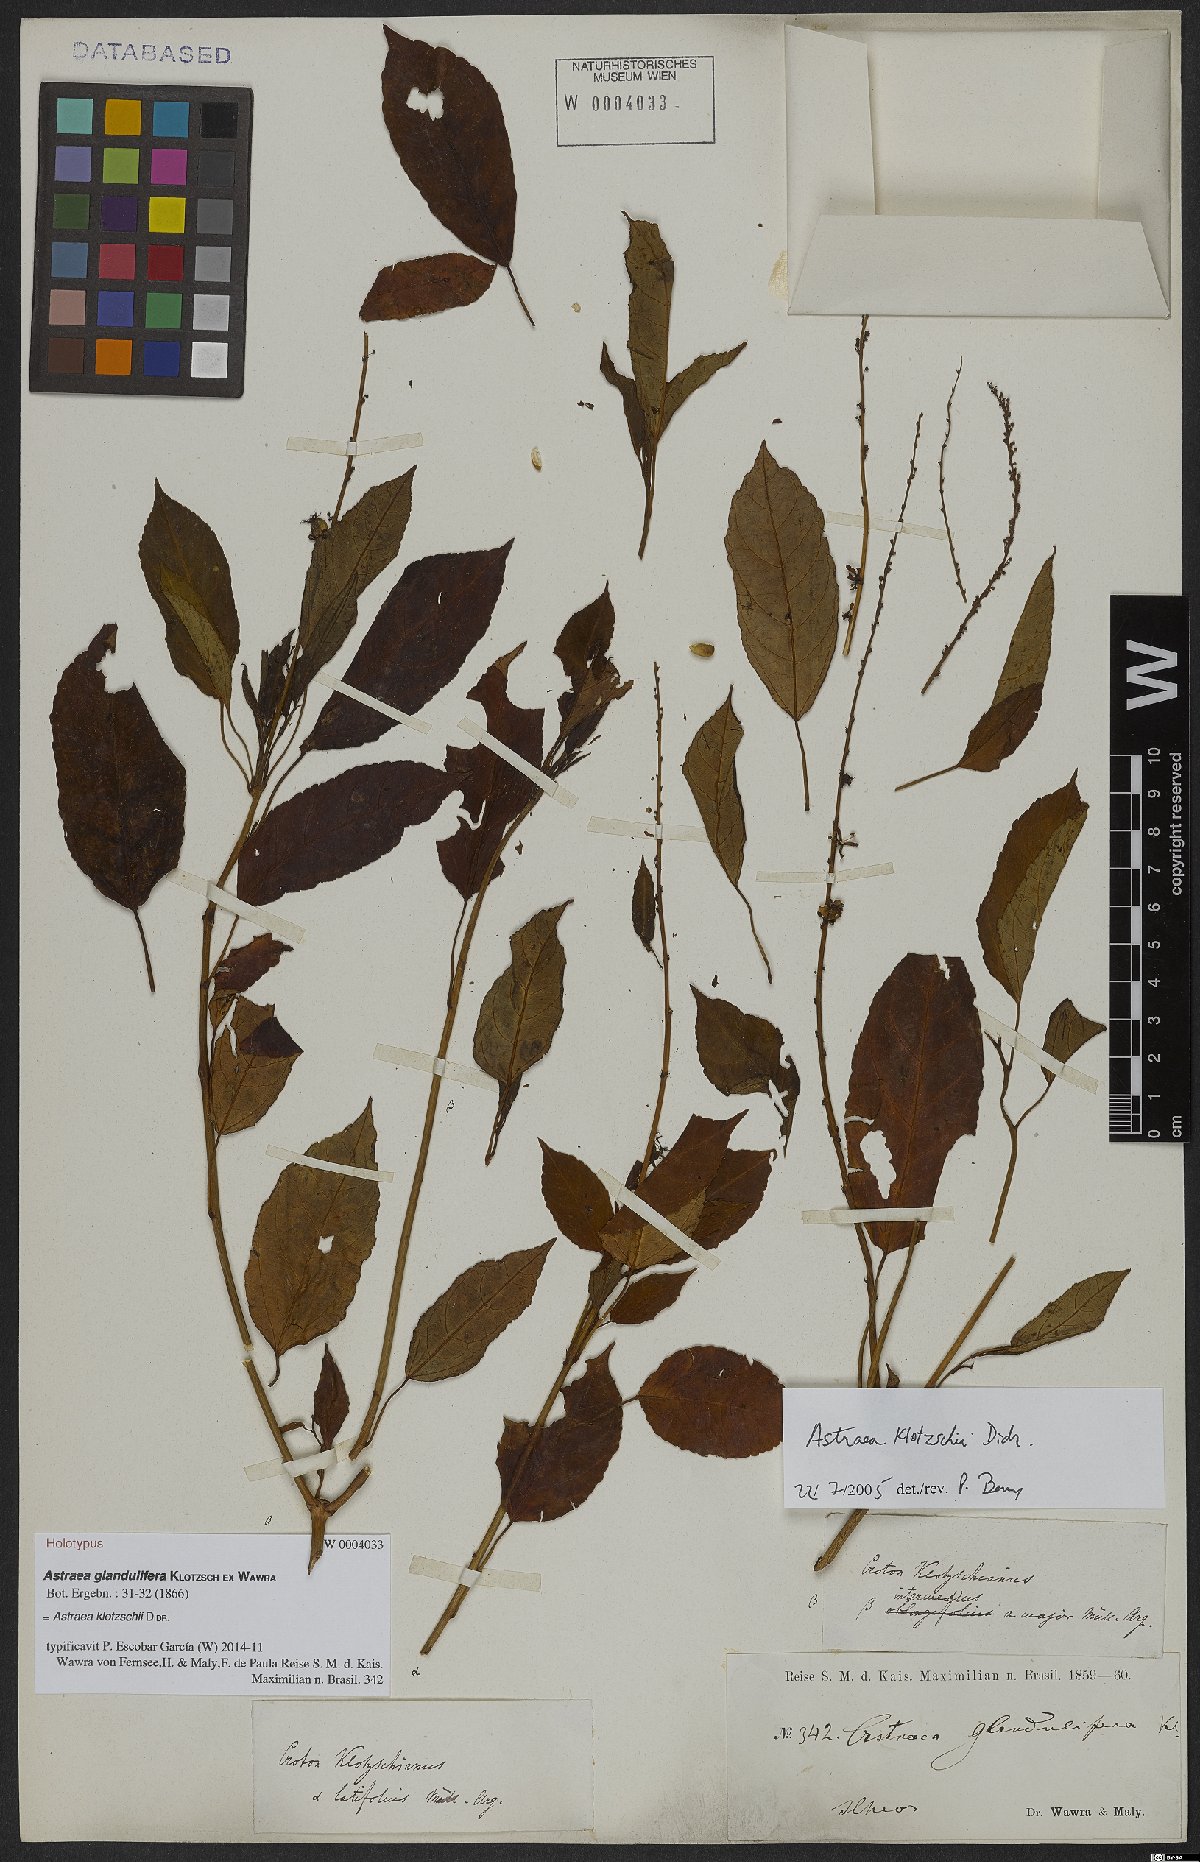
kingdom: Plantae
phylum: Tracheophyta
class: Magnoliopsida
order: Malpighiales
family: Euphorbiaceae
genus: Astraea
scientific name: Astraea macroura
